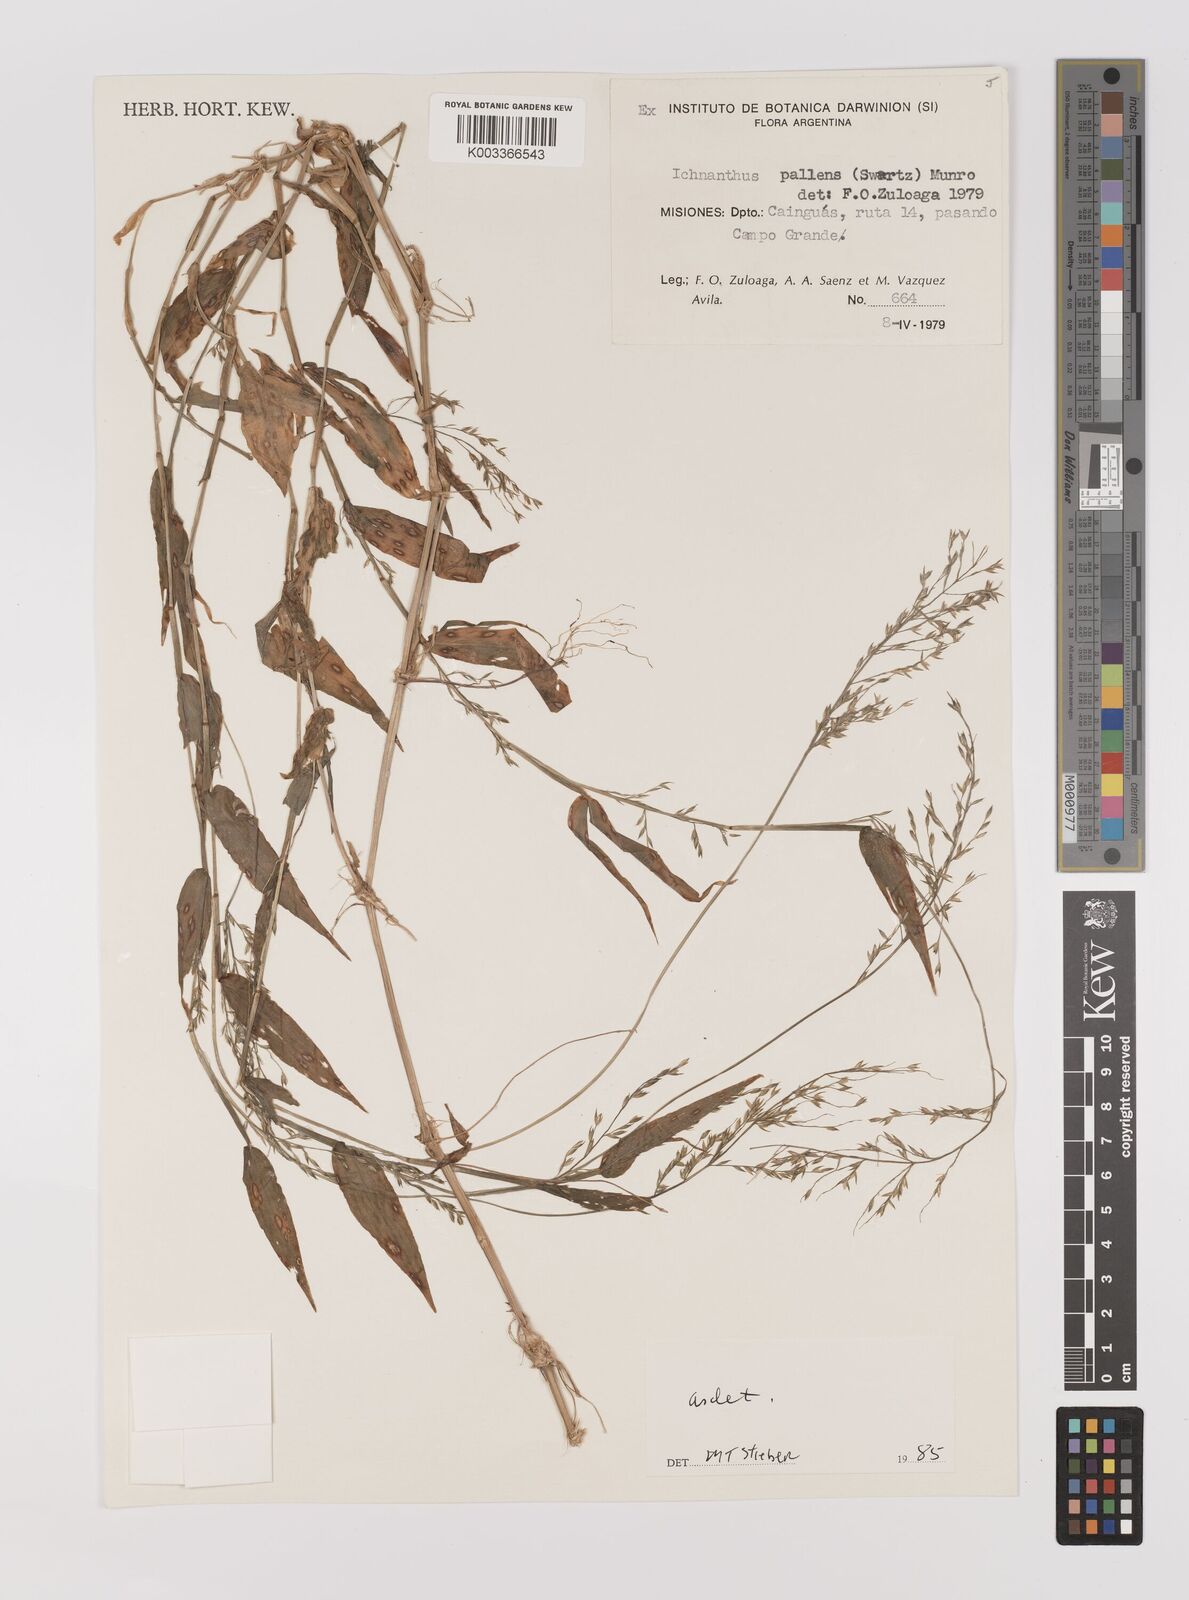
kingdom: Plantae
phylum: Tracheophyta
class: Liliopsida
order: Poales
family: Poaceae
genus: Ichnanthus
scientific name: Ichnanthus pallens
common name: Water grass
